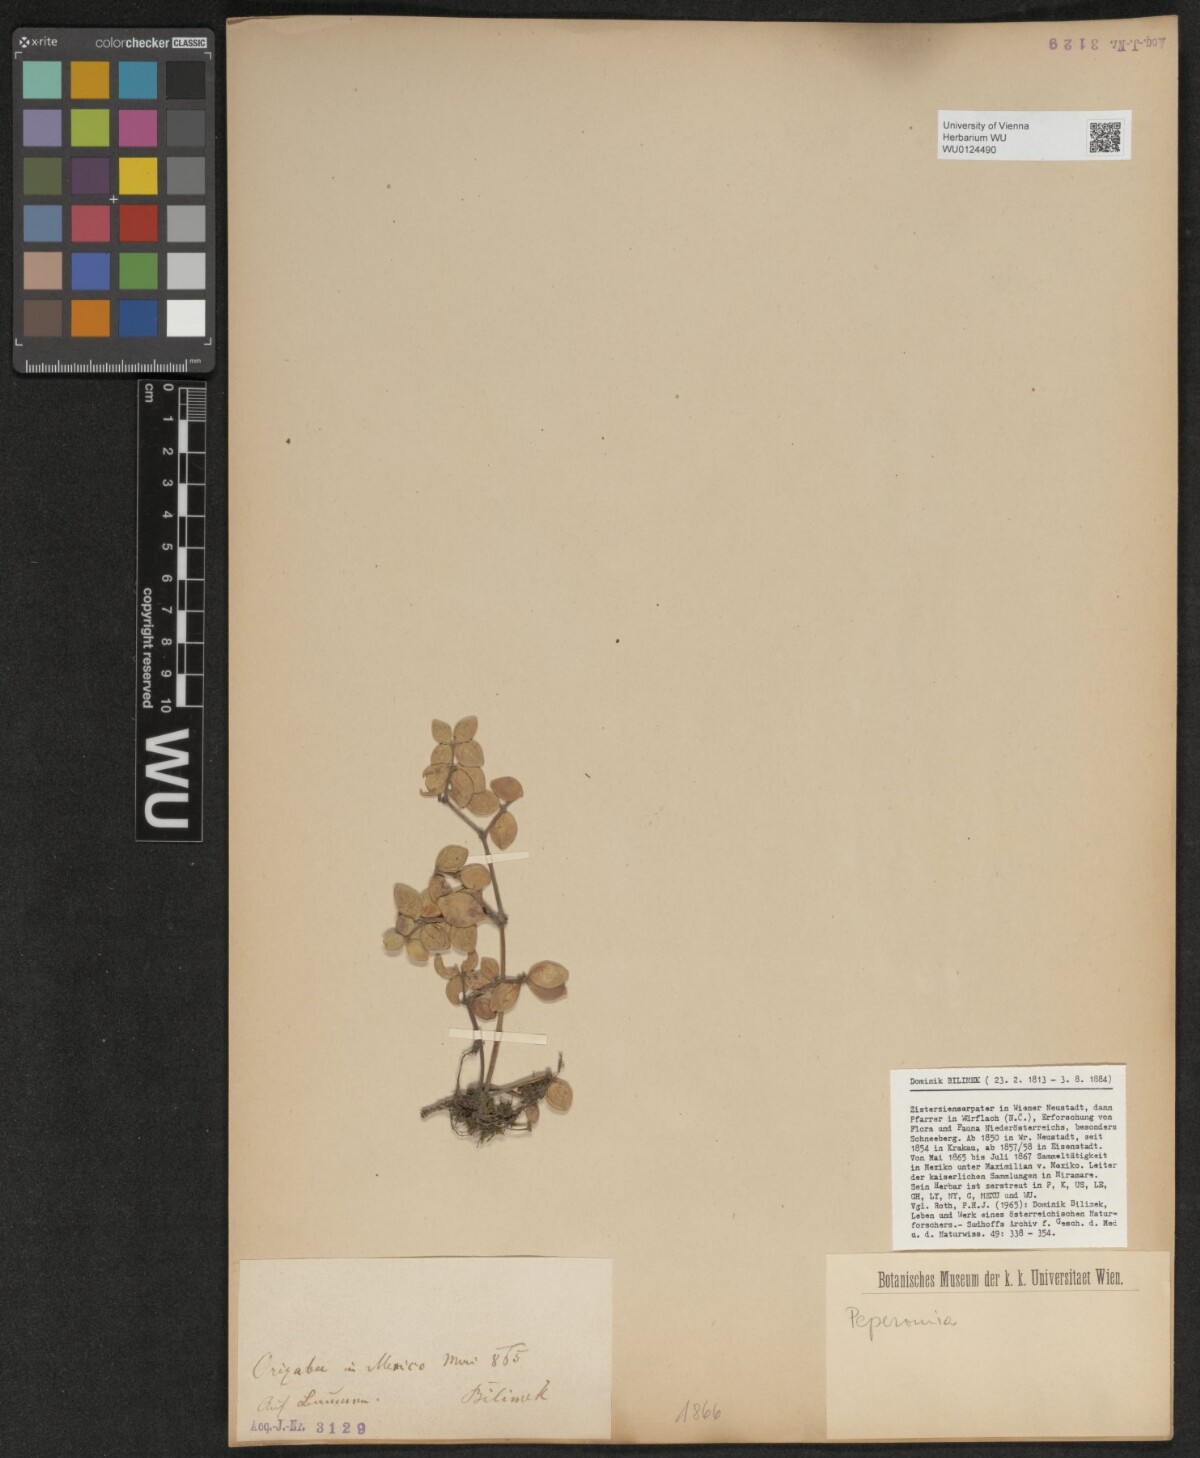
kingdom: Plantae
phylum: Tracheophyta
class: Magnoliopsida
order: Piperales
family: Piperaceae
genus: Peperomia
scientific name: Peperomia
